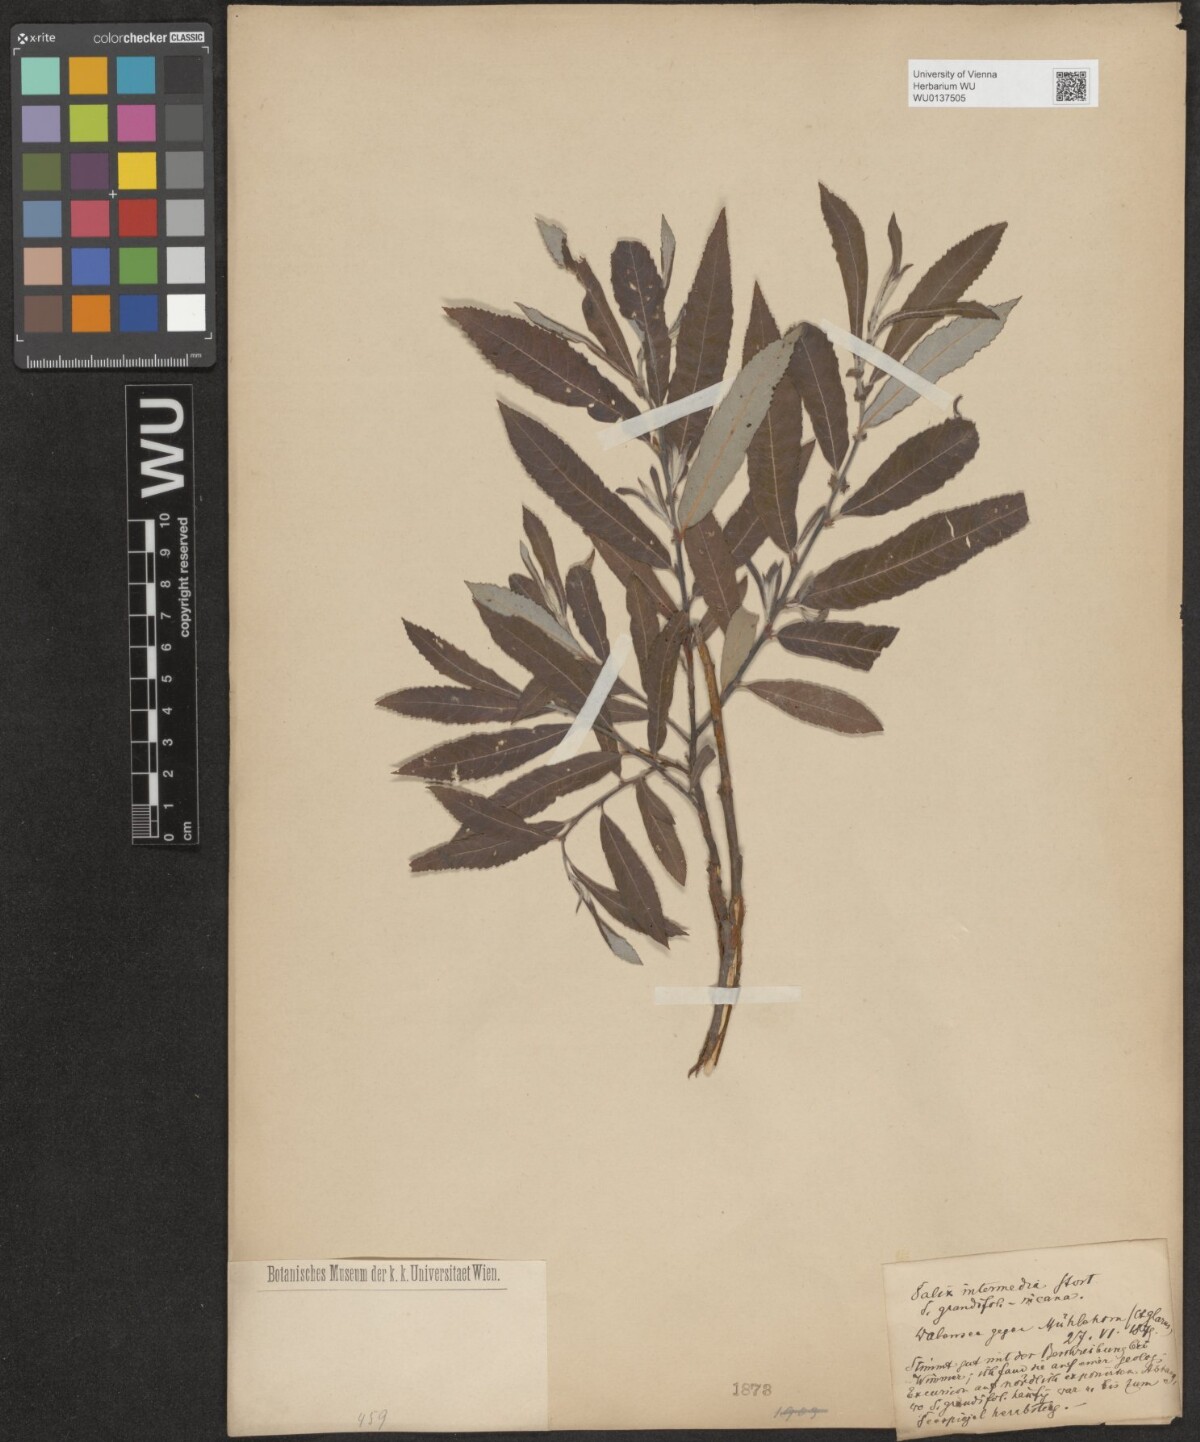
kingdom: Plantae
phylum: Tracheophyta
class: Magnoliopsida
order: Malpighiales
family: Salicaceae
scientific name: Salicaceae
